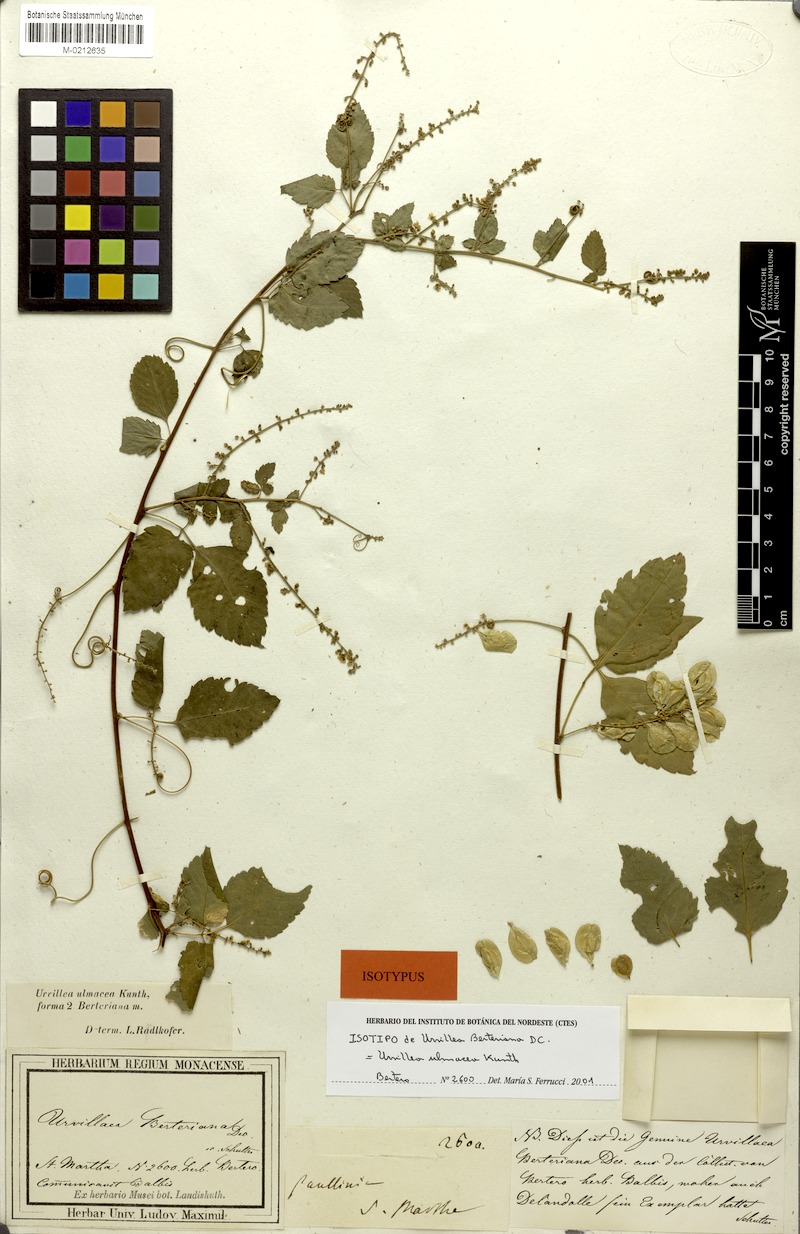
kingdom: Plantae
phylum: Tracheophyta
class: Magnoliopsida
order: Sapindales
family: Sapindaceae
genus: Urvillea
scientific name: Urvillea ulmacea
